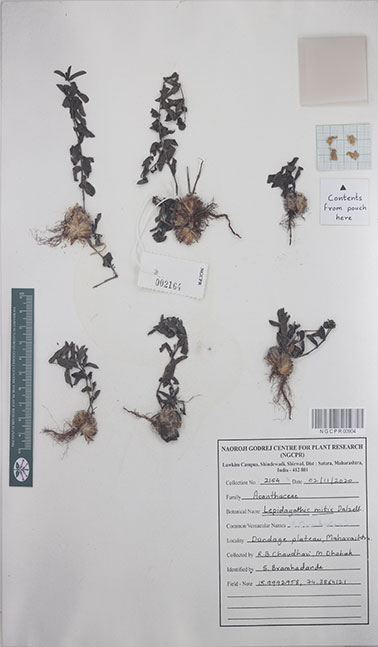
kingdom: Plantae
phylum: Tracheophyta
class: Magnoliopsida
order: Lamiales
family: Acanthaceae
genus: Lepidagathis
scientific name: Lepidagathis mitis
